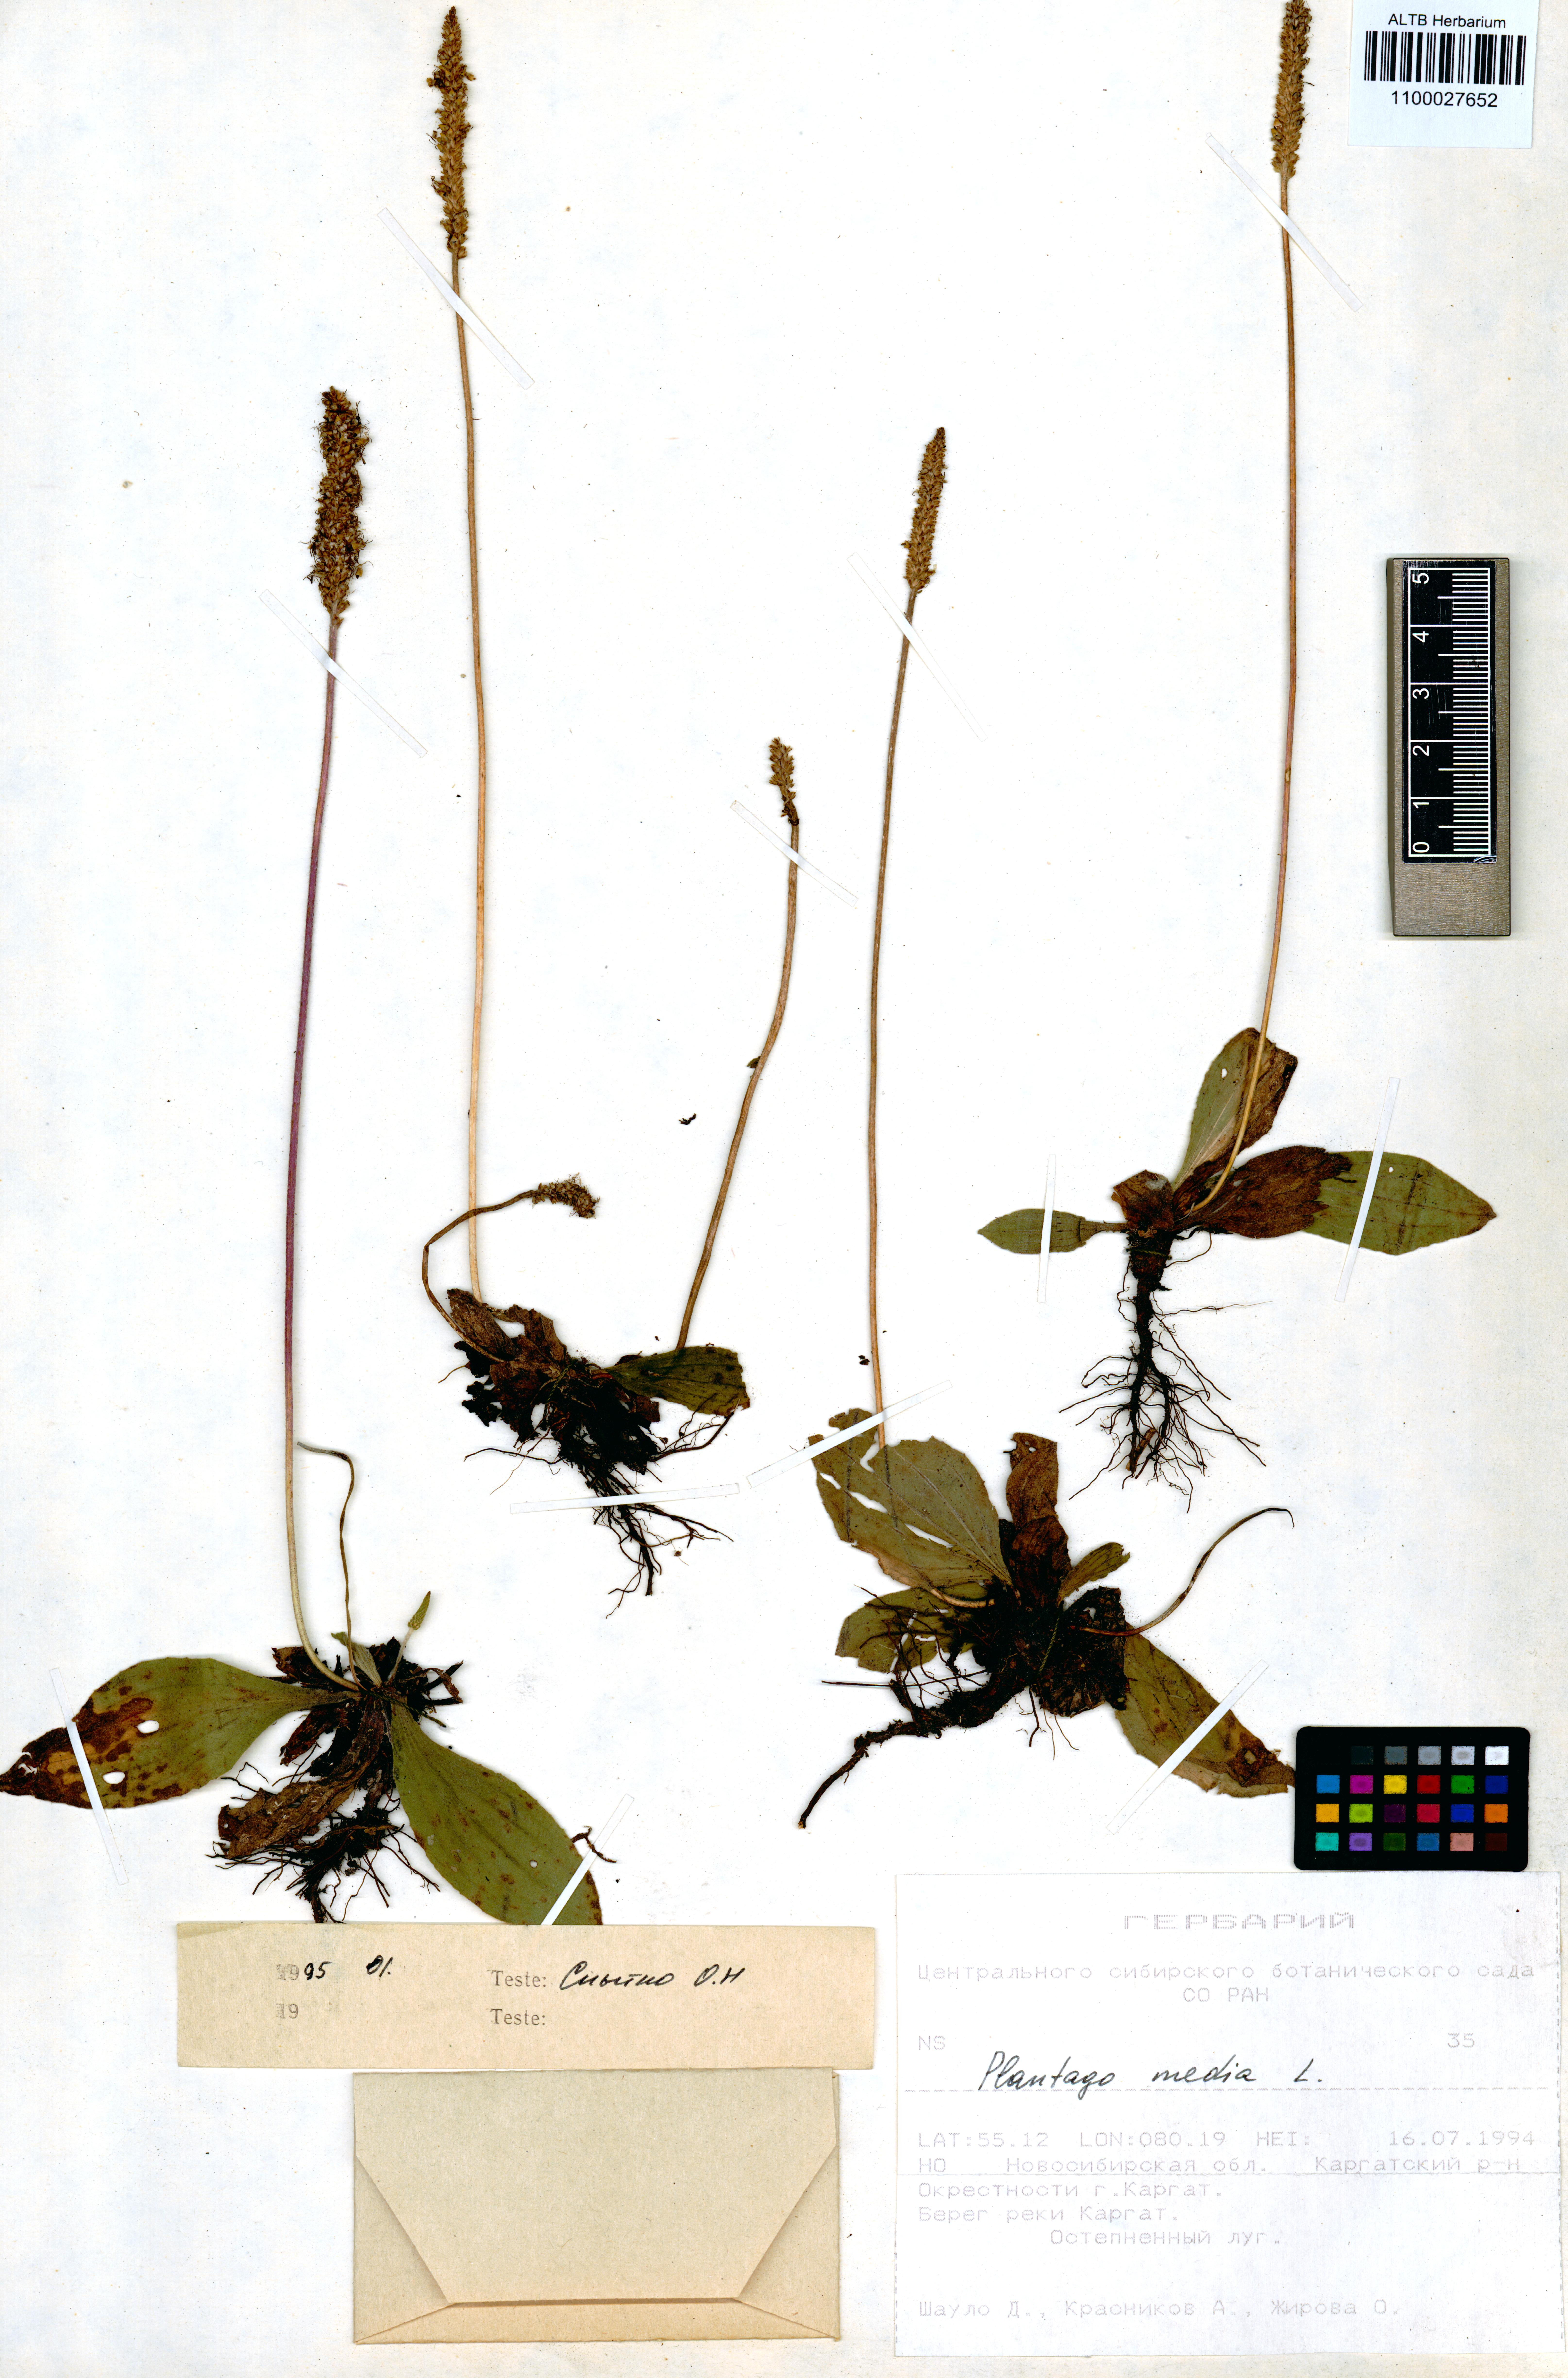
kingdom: Plantae
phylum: Tracheophyta
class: Magnoliopsida
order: Lamiales
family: Plantaginaceae
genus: Plantago
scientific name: Plantago media
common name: Hoary plantain
